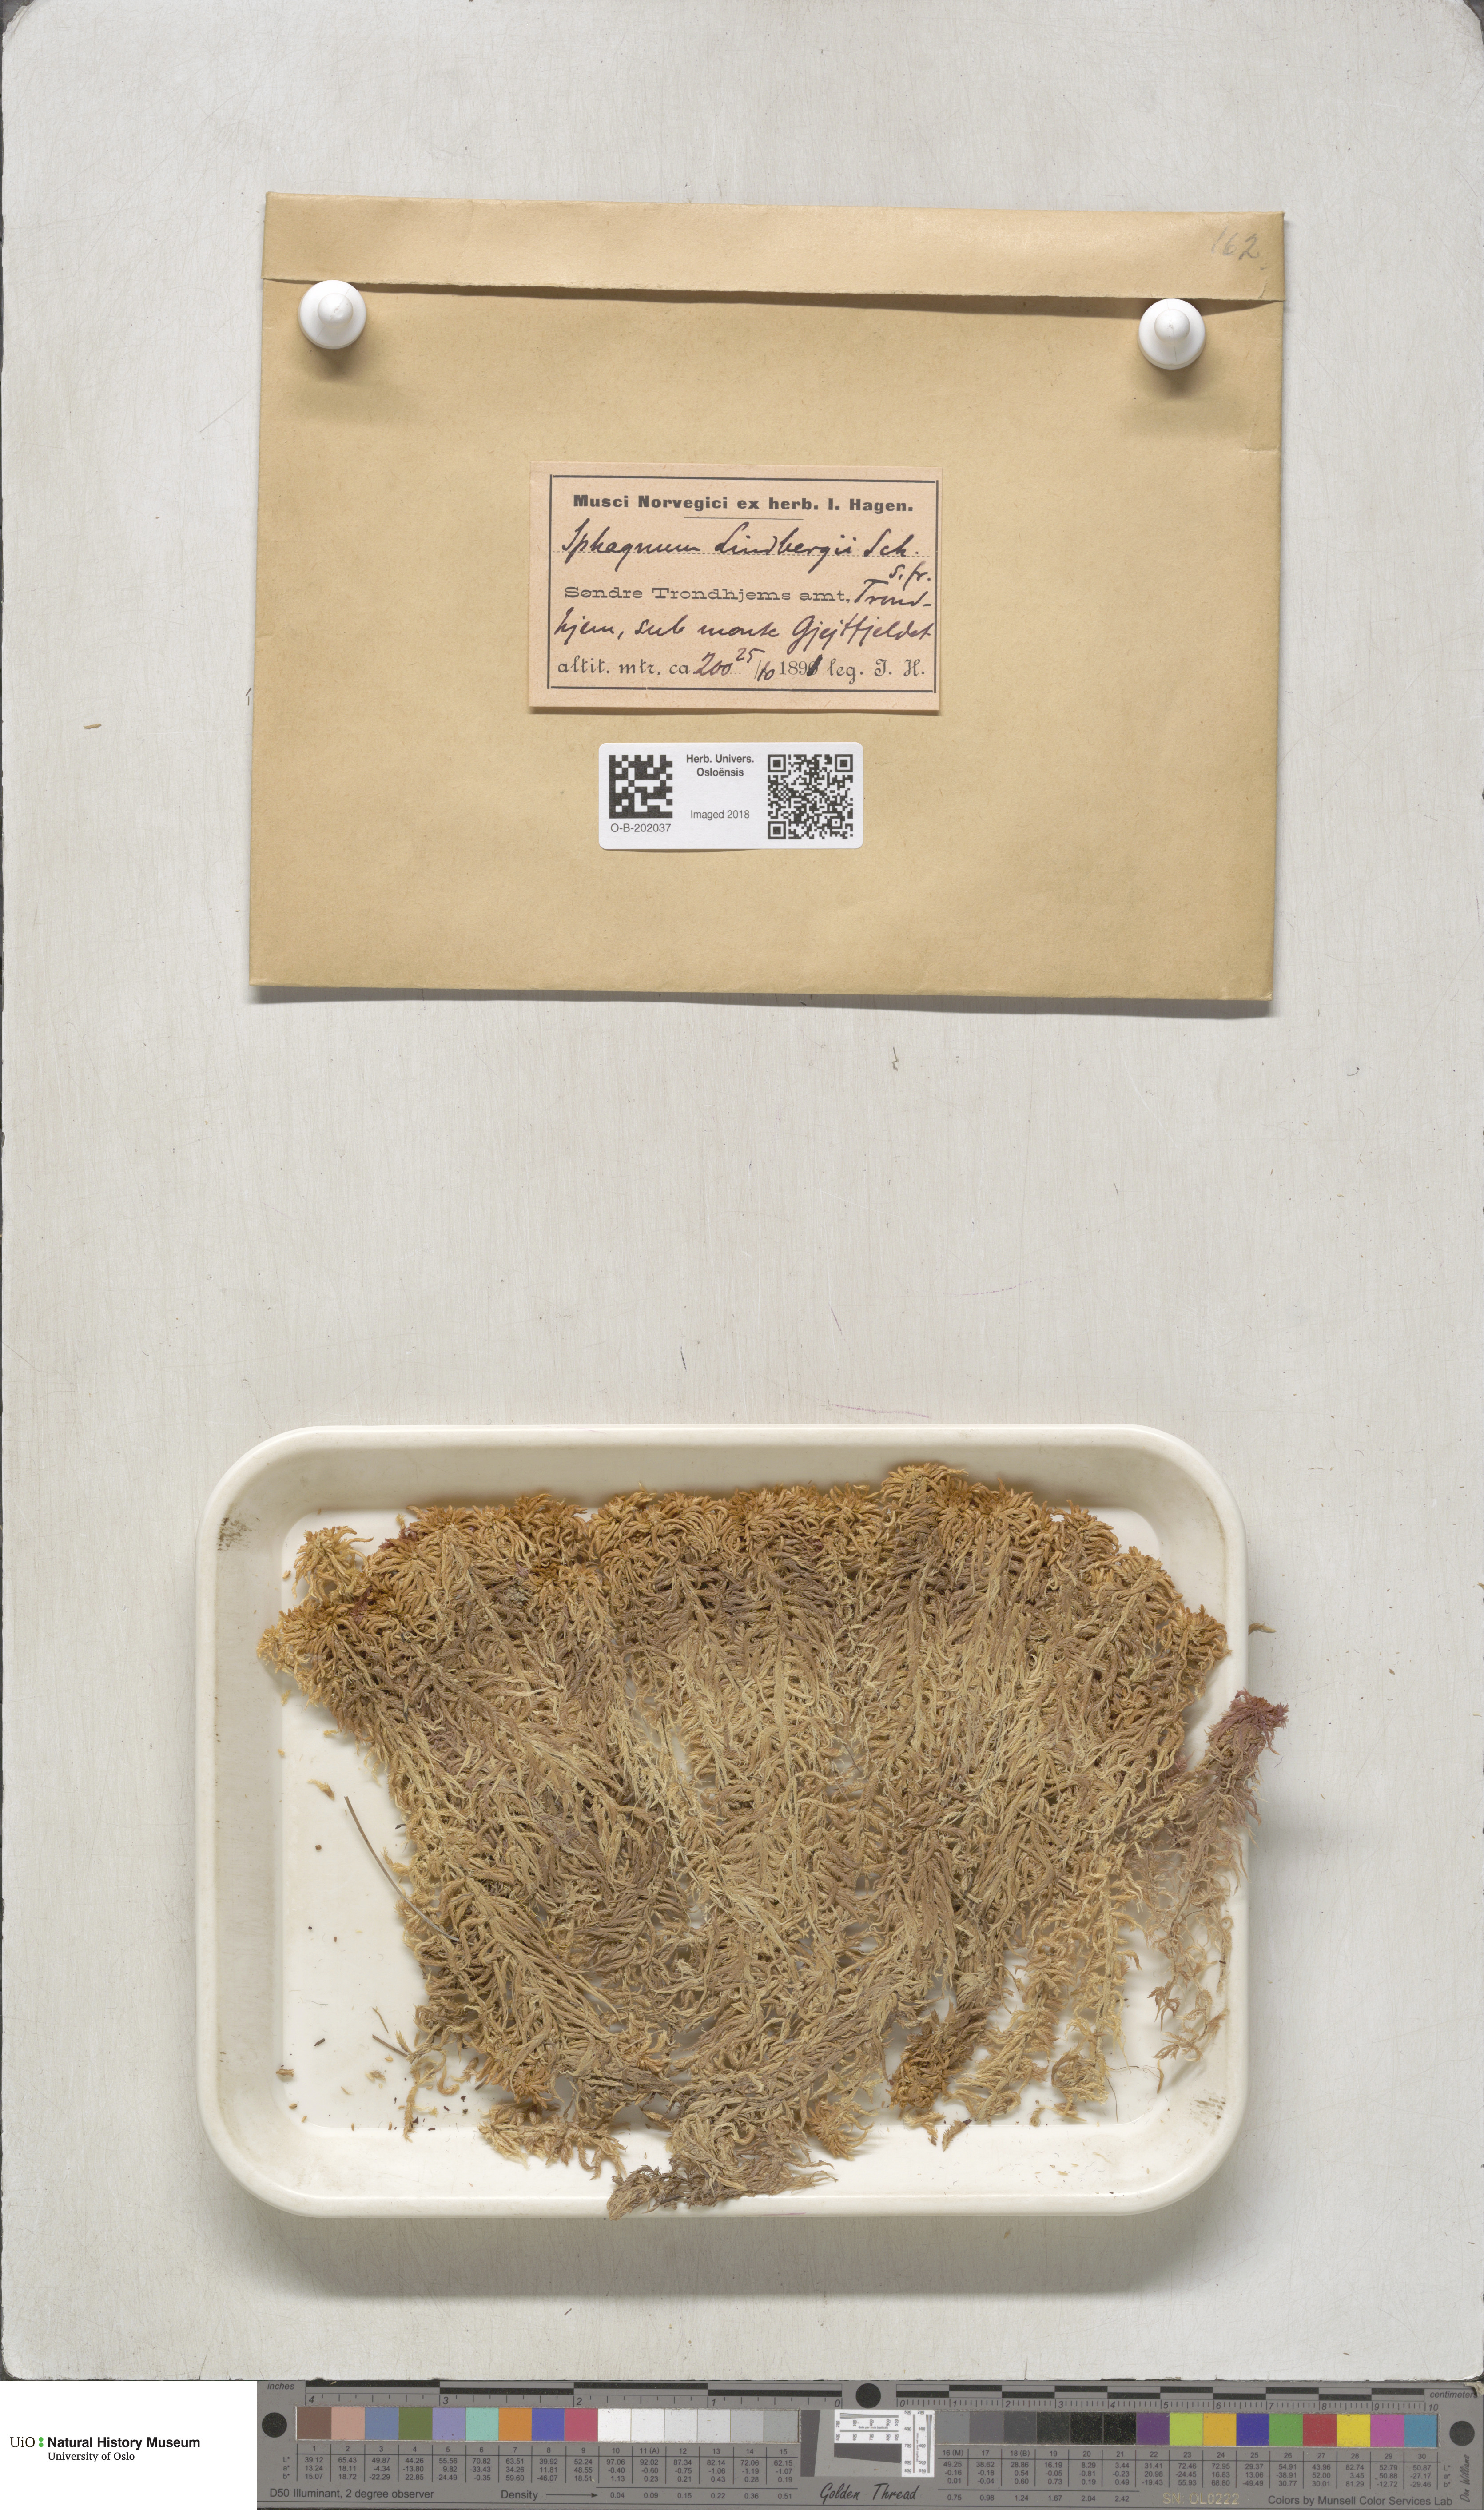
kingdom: Plantae
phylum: Bryophyta
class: Sphagnopsida
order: Sphagnales
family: Sphagnaceae
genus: Sphagnum
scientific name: Sphagnum lindbergii
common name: Lindberg's peat moss
